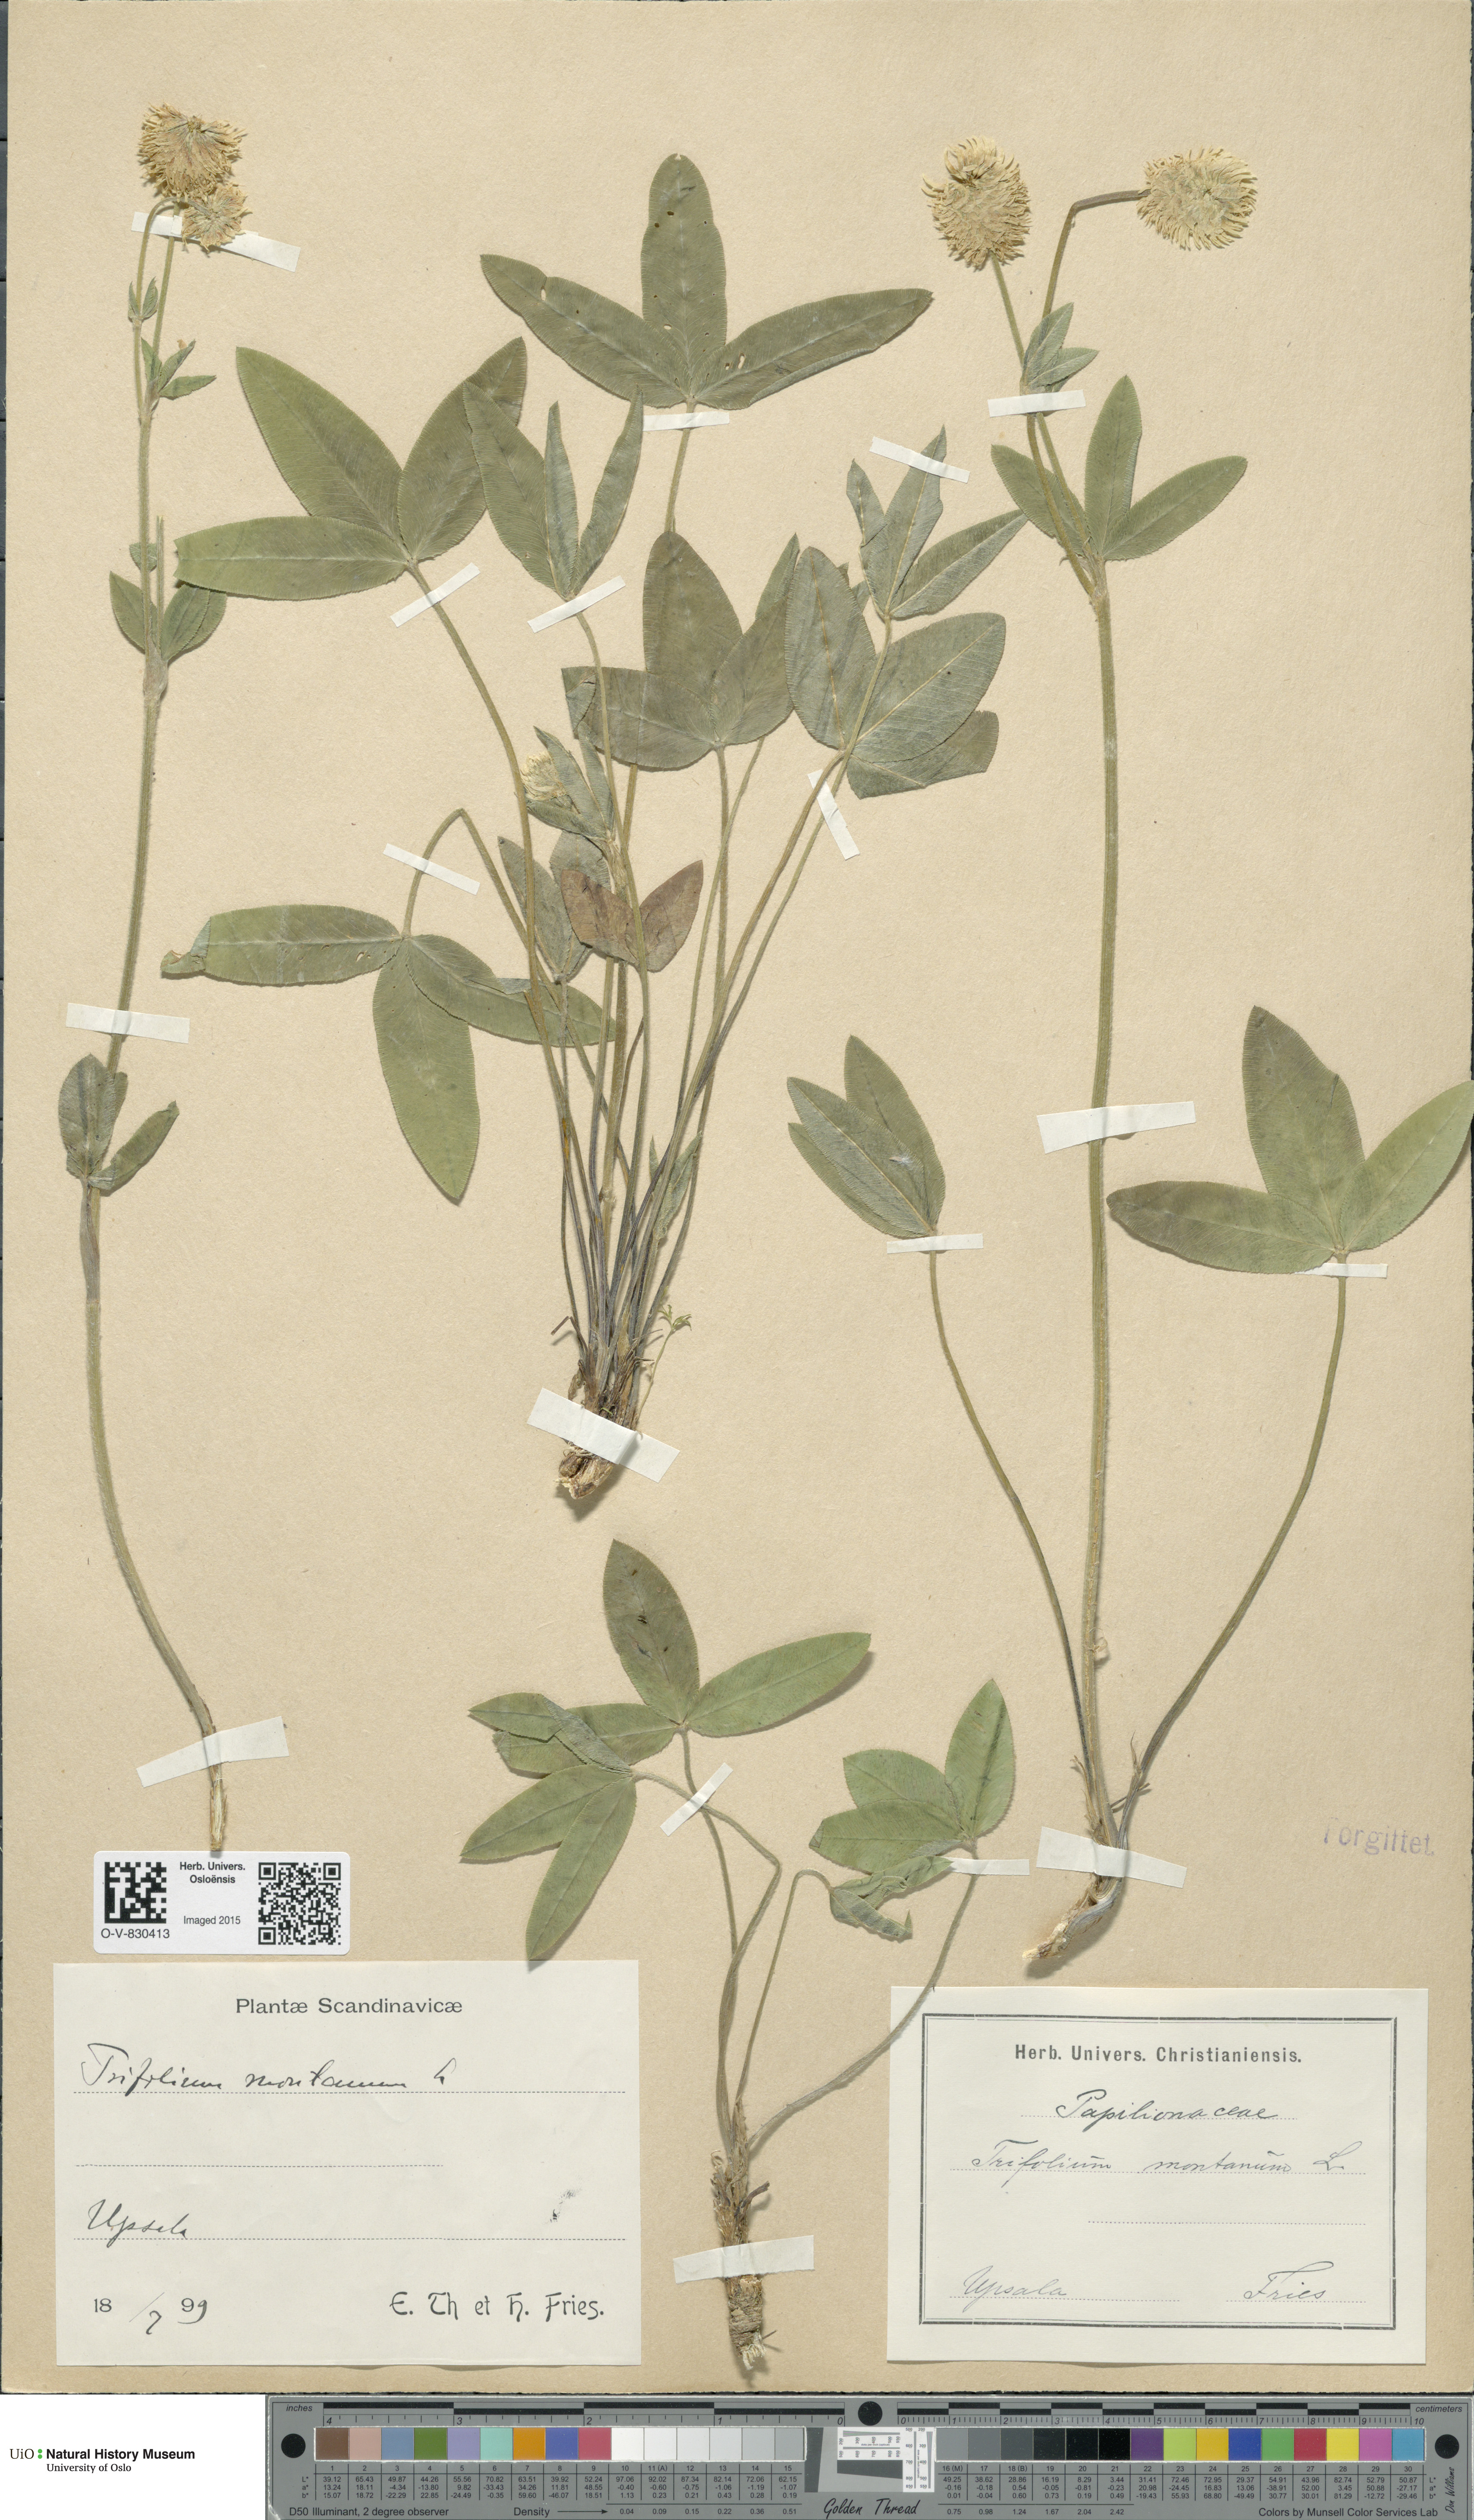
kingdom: Plantae
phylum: Tracheophyta
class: Magnoliopsida
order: Fabales
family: Fabaceae
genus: Trifolium
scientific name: Trifolium montanum
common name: Mountain clover
